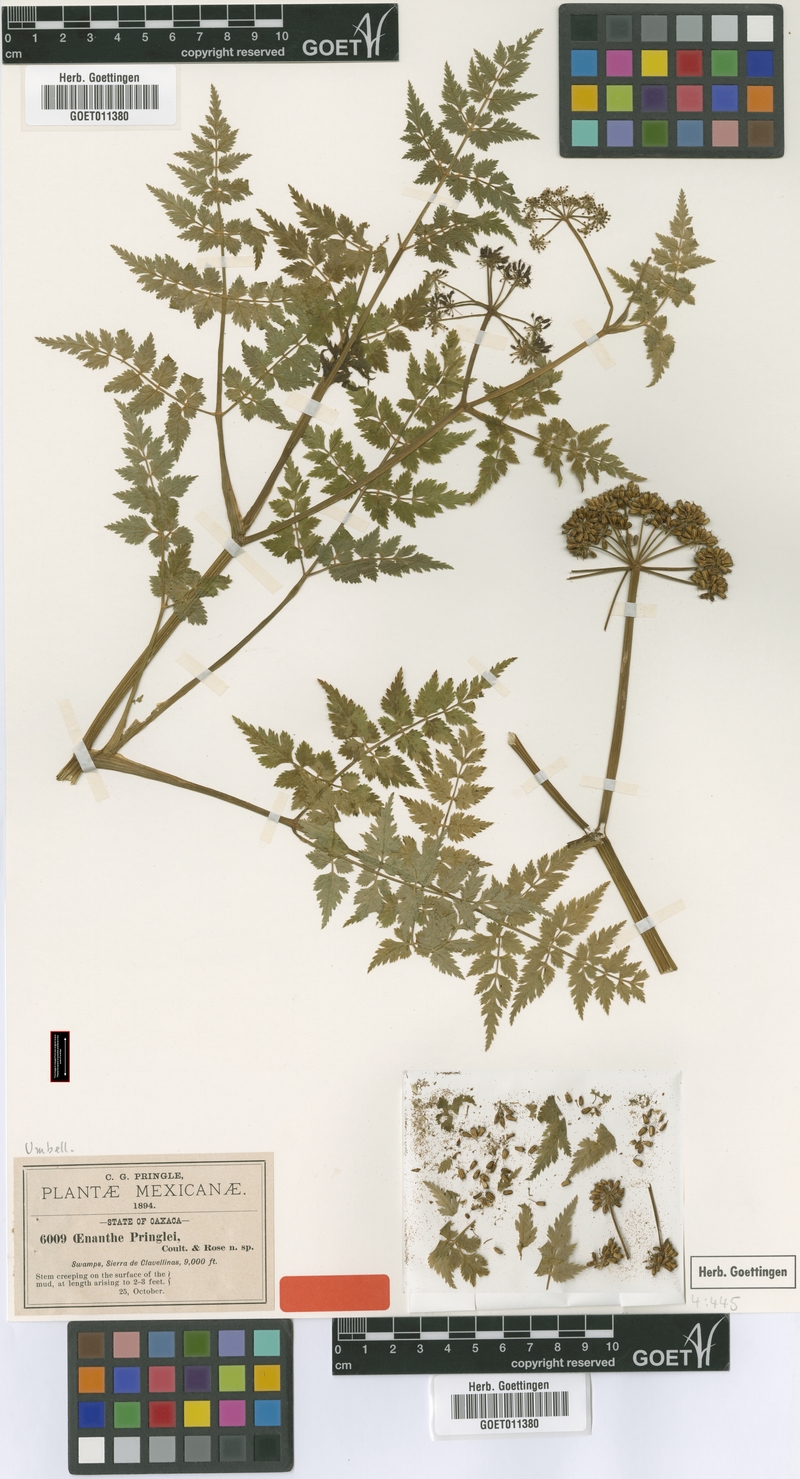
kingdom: Plantae
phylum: Tracheophyta
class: Magnoliopsida
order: Apiales
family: Apiaceae
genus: Oenanthe
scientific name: Oenanthe pringlei
